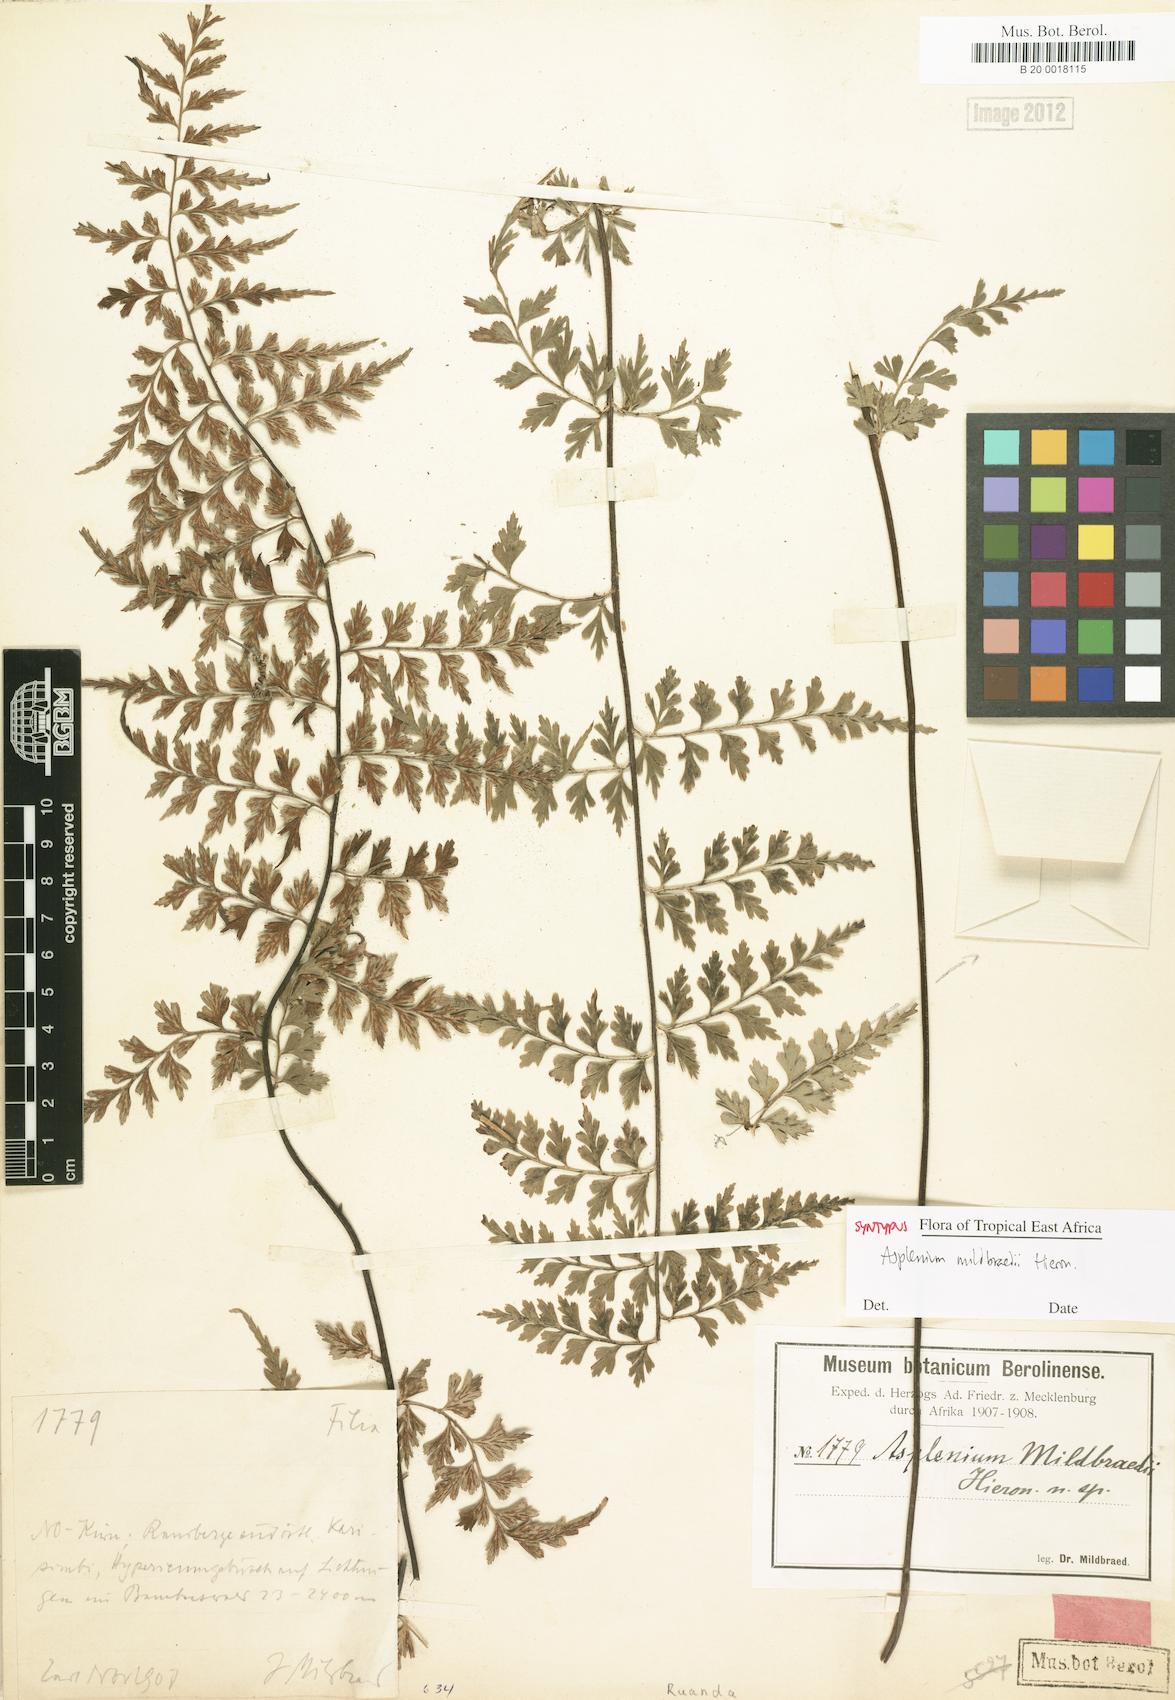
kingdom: Plantae
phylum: Tracheophyta
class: Polypodiopsida
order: Polypodiales
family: Aspleniaceae
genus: Asplenium
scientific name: Asplenium mildbraedii
